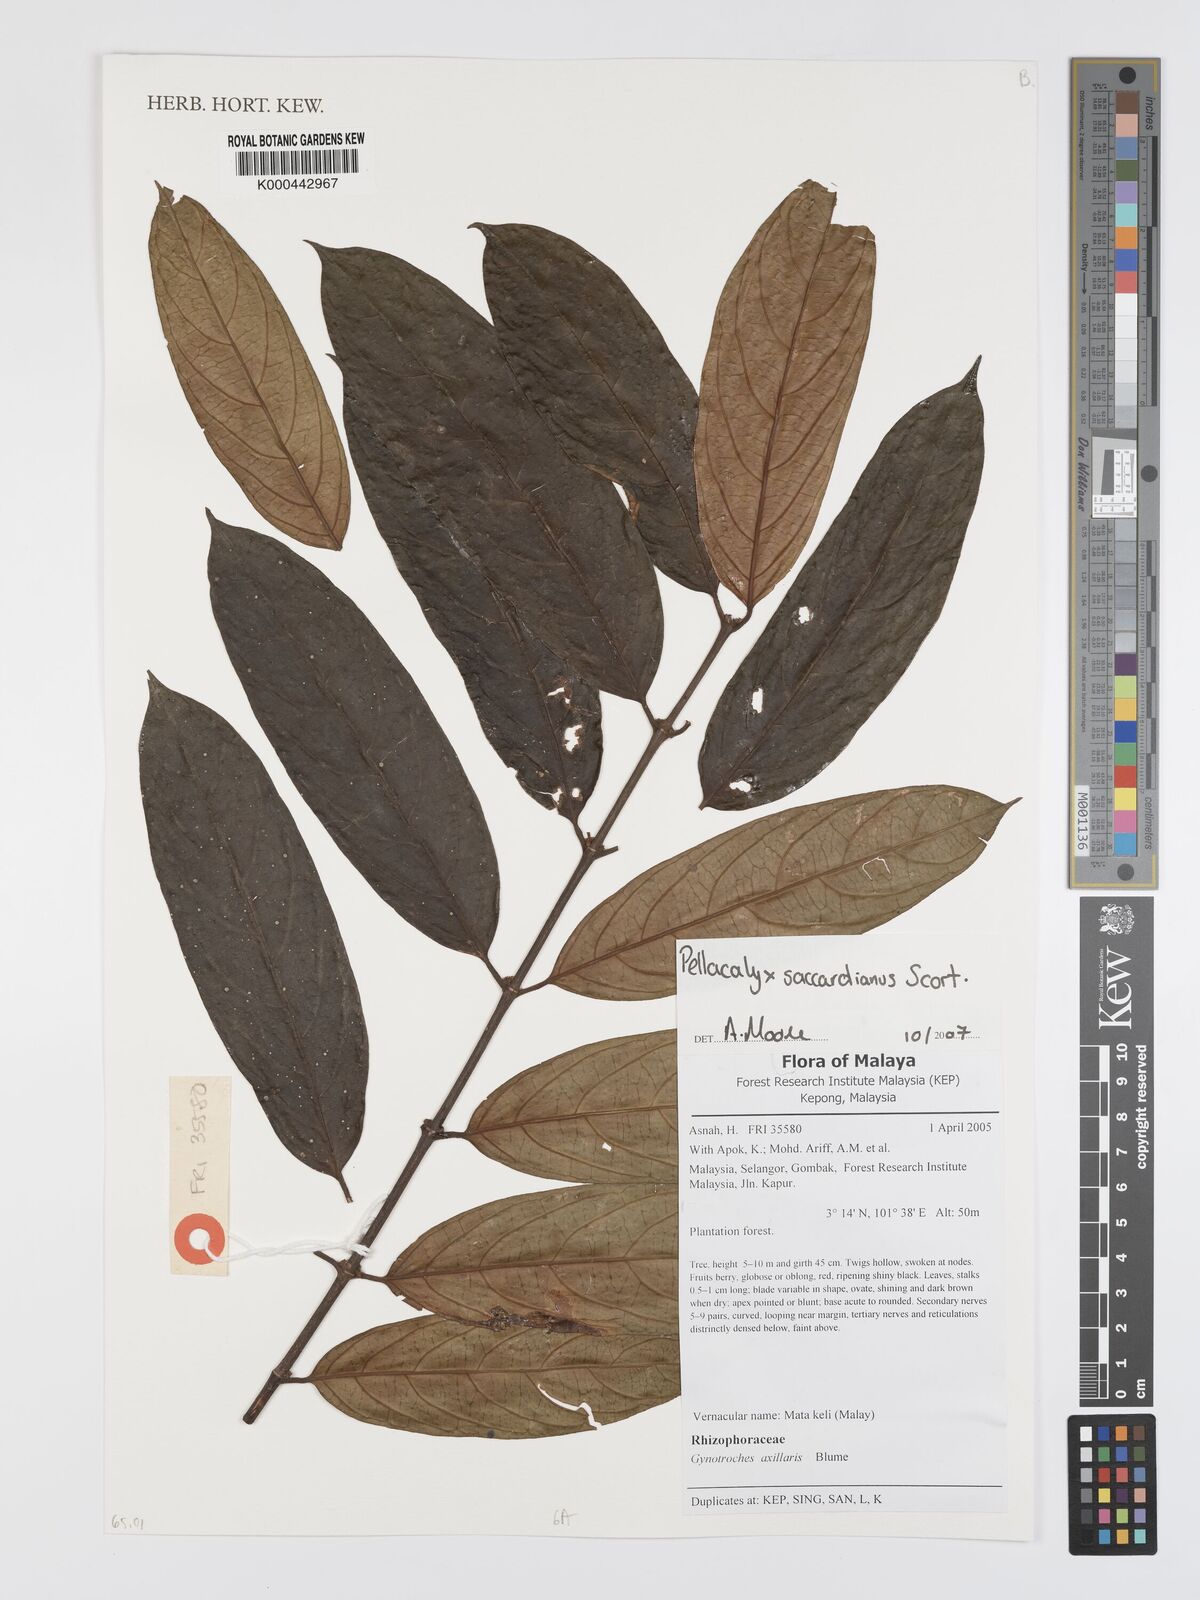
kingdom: Plantae
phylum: Tracheophyta
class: Magnoliopsida
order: Malpighiales
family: Rhizophoraceae
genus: Pellacalyx
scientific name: Pellacalyx saccardianus
